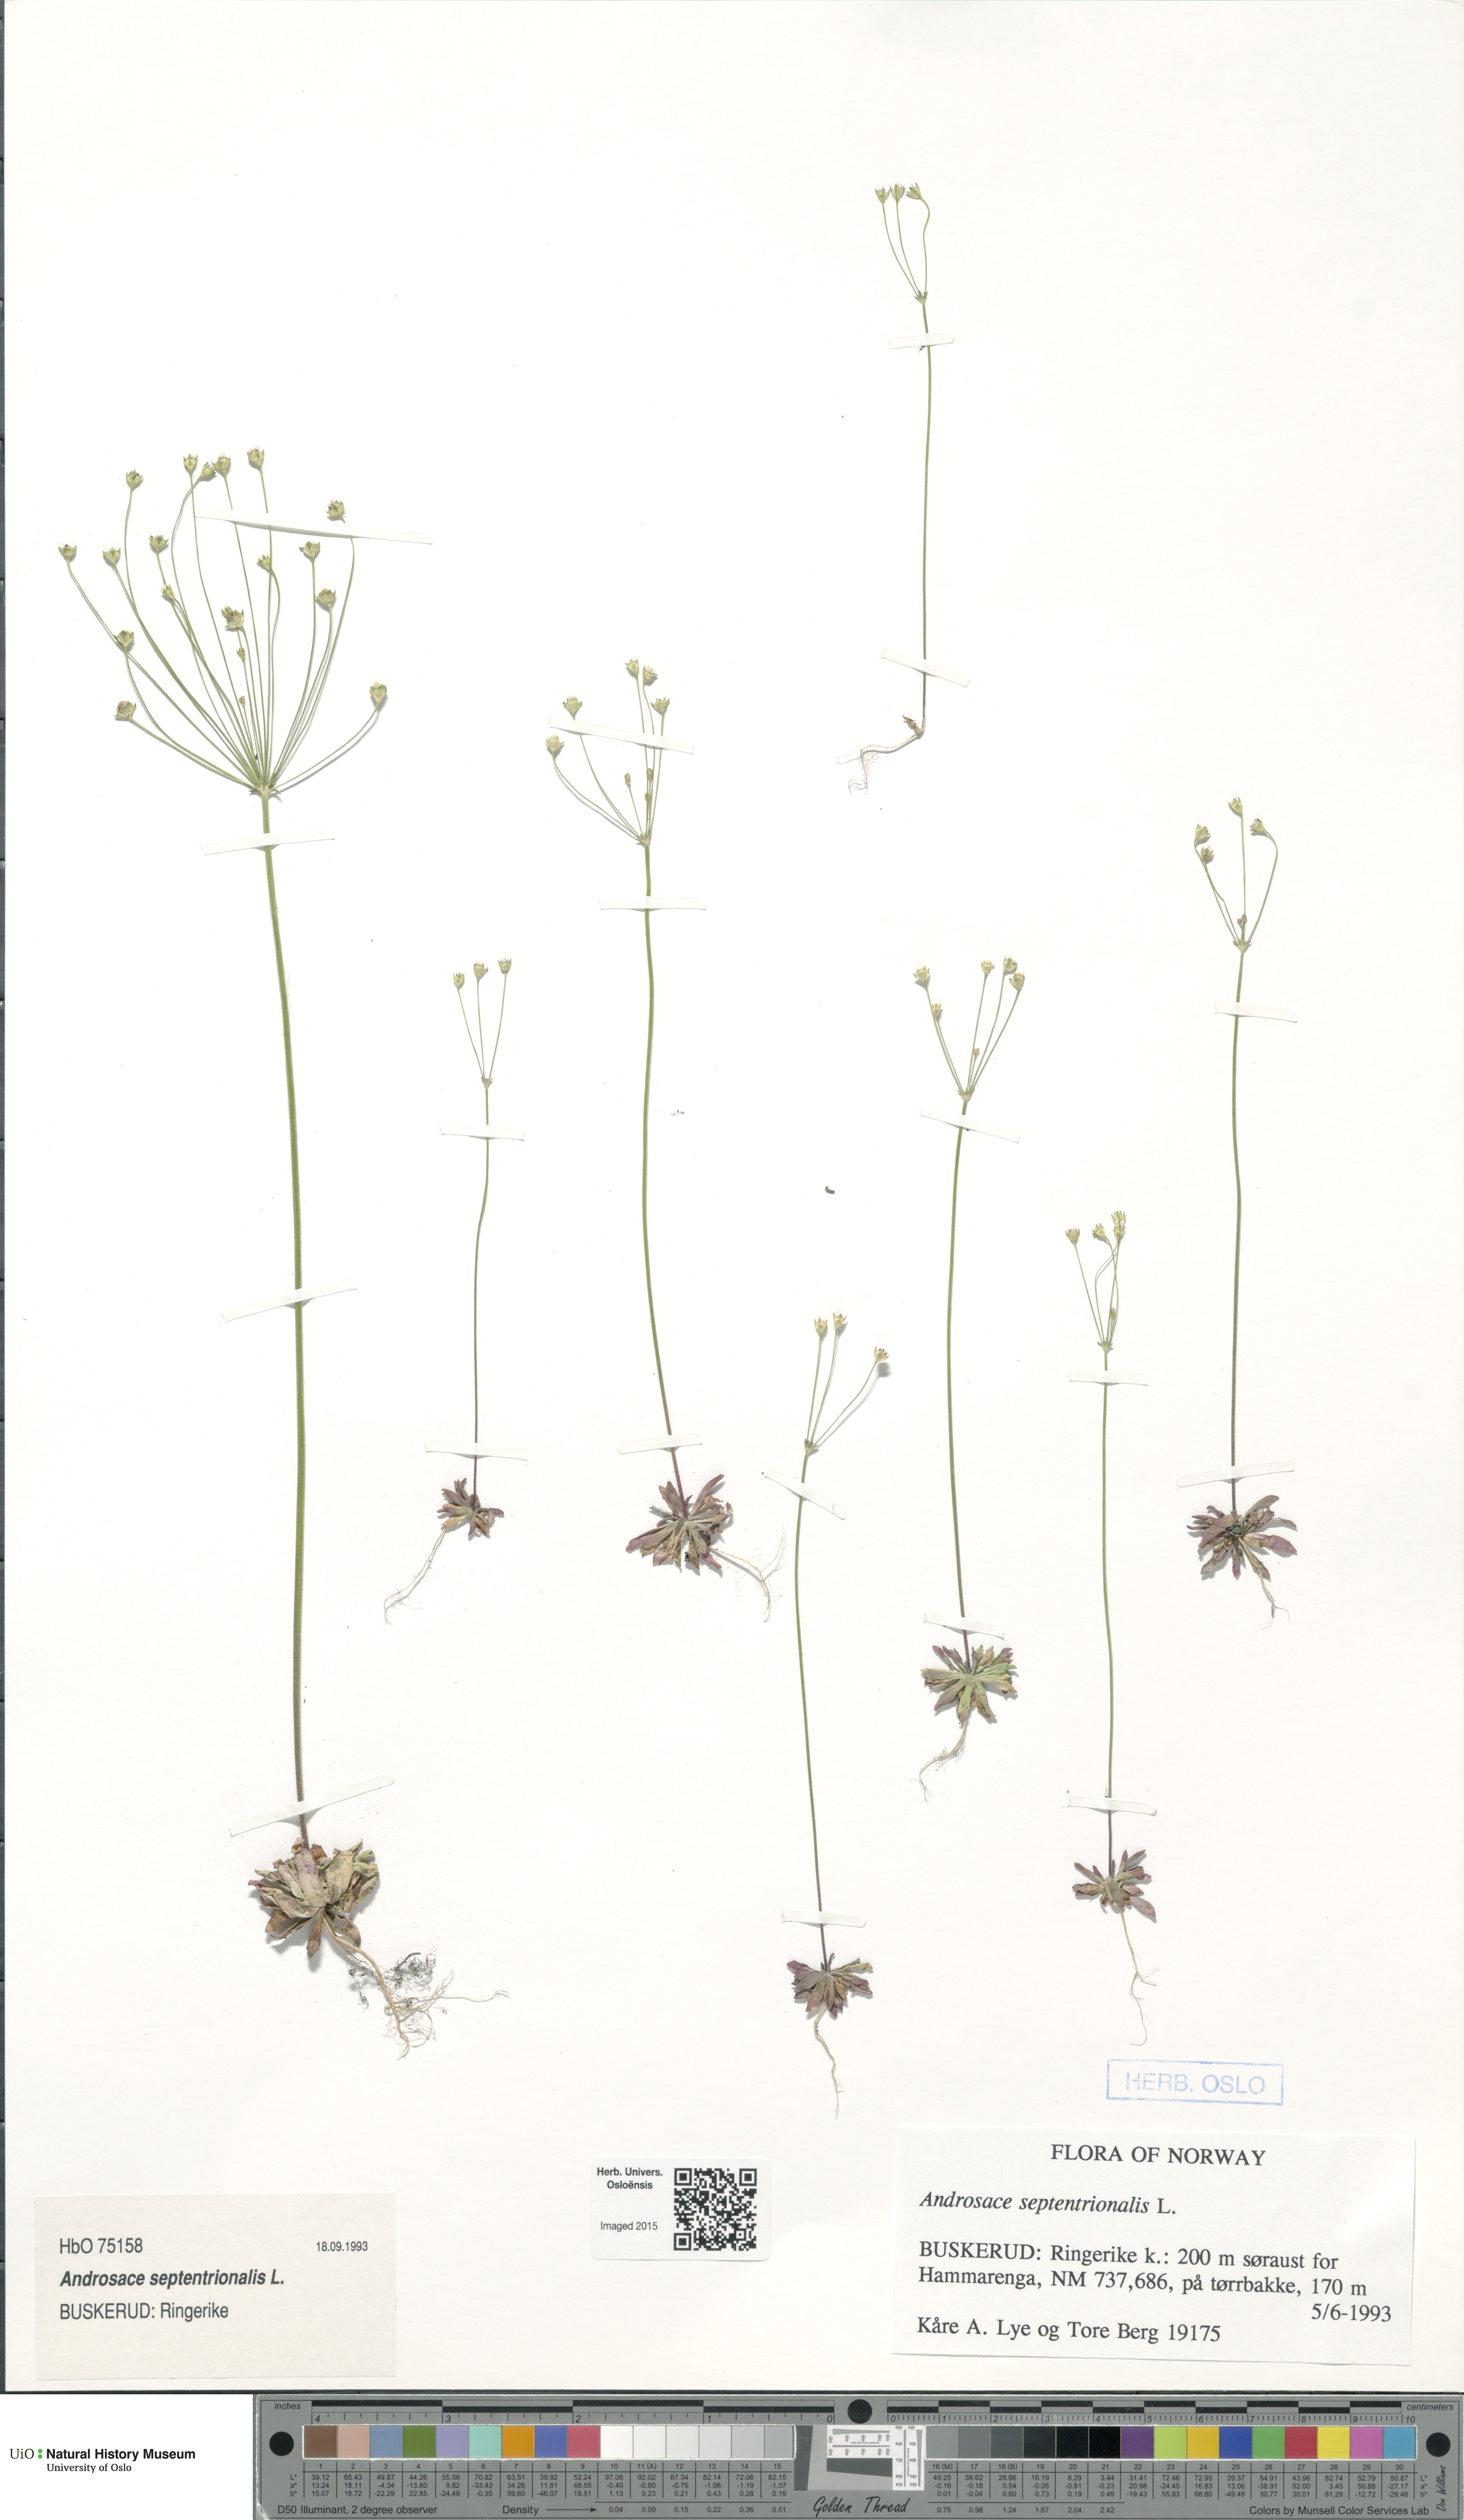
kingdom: Plantae
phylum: Tracheophyta
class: Magnoliopsida
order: Ericales
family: Primulaceae
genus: Androsace
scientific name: Androsace septentrionalis
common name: Hairy northern fairy-candelabra
